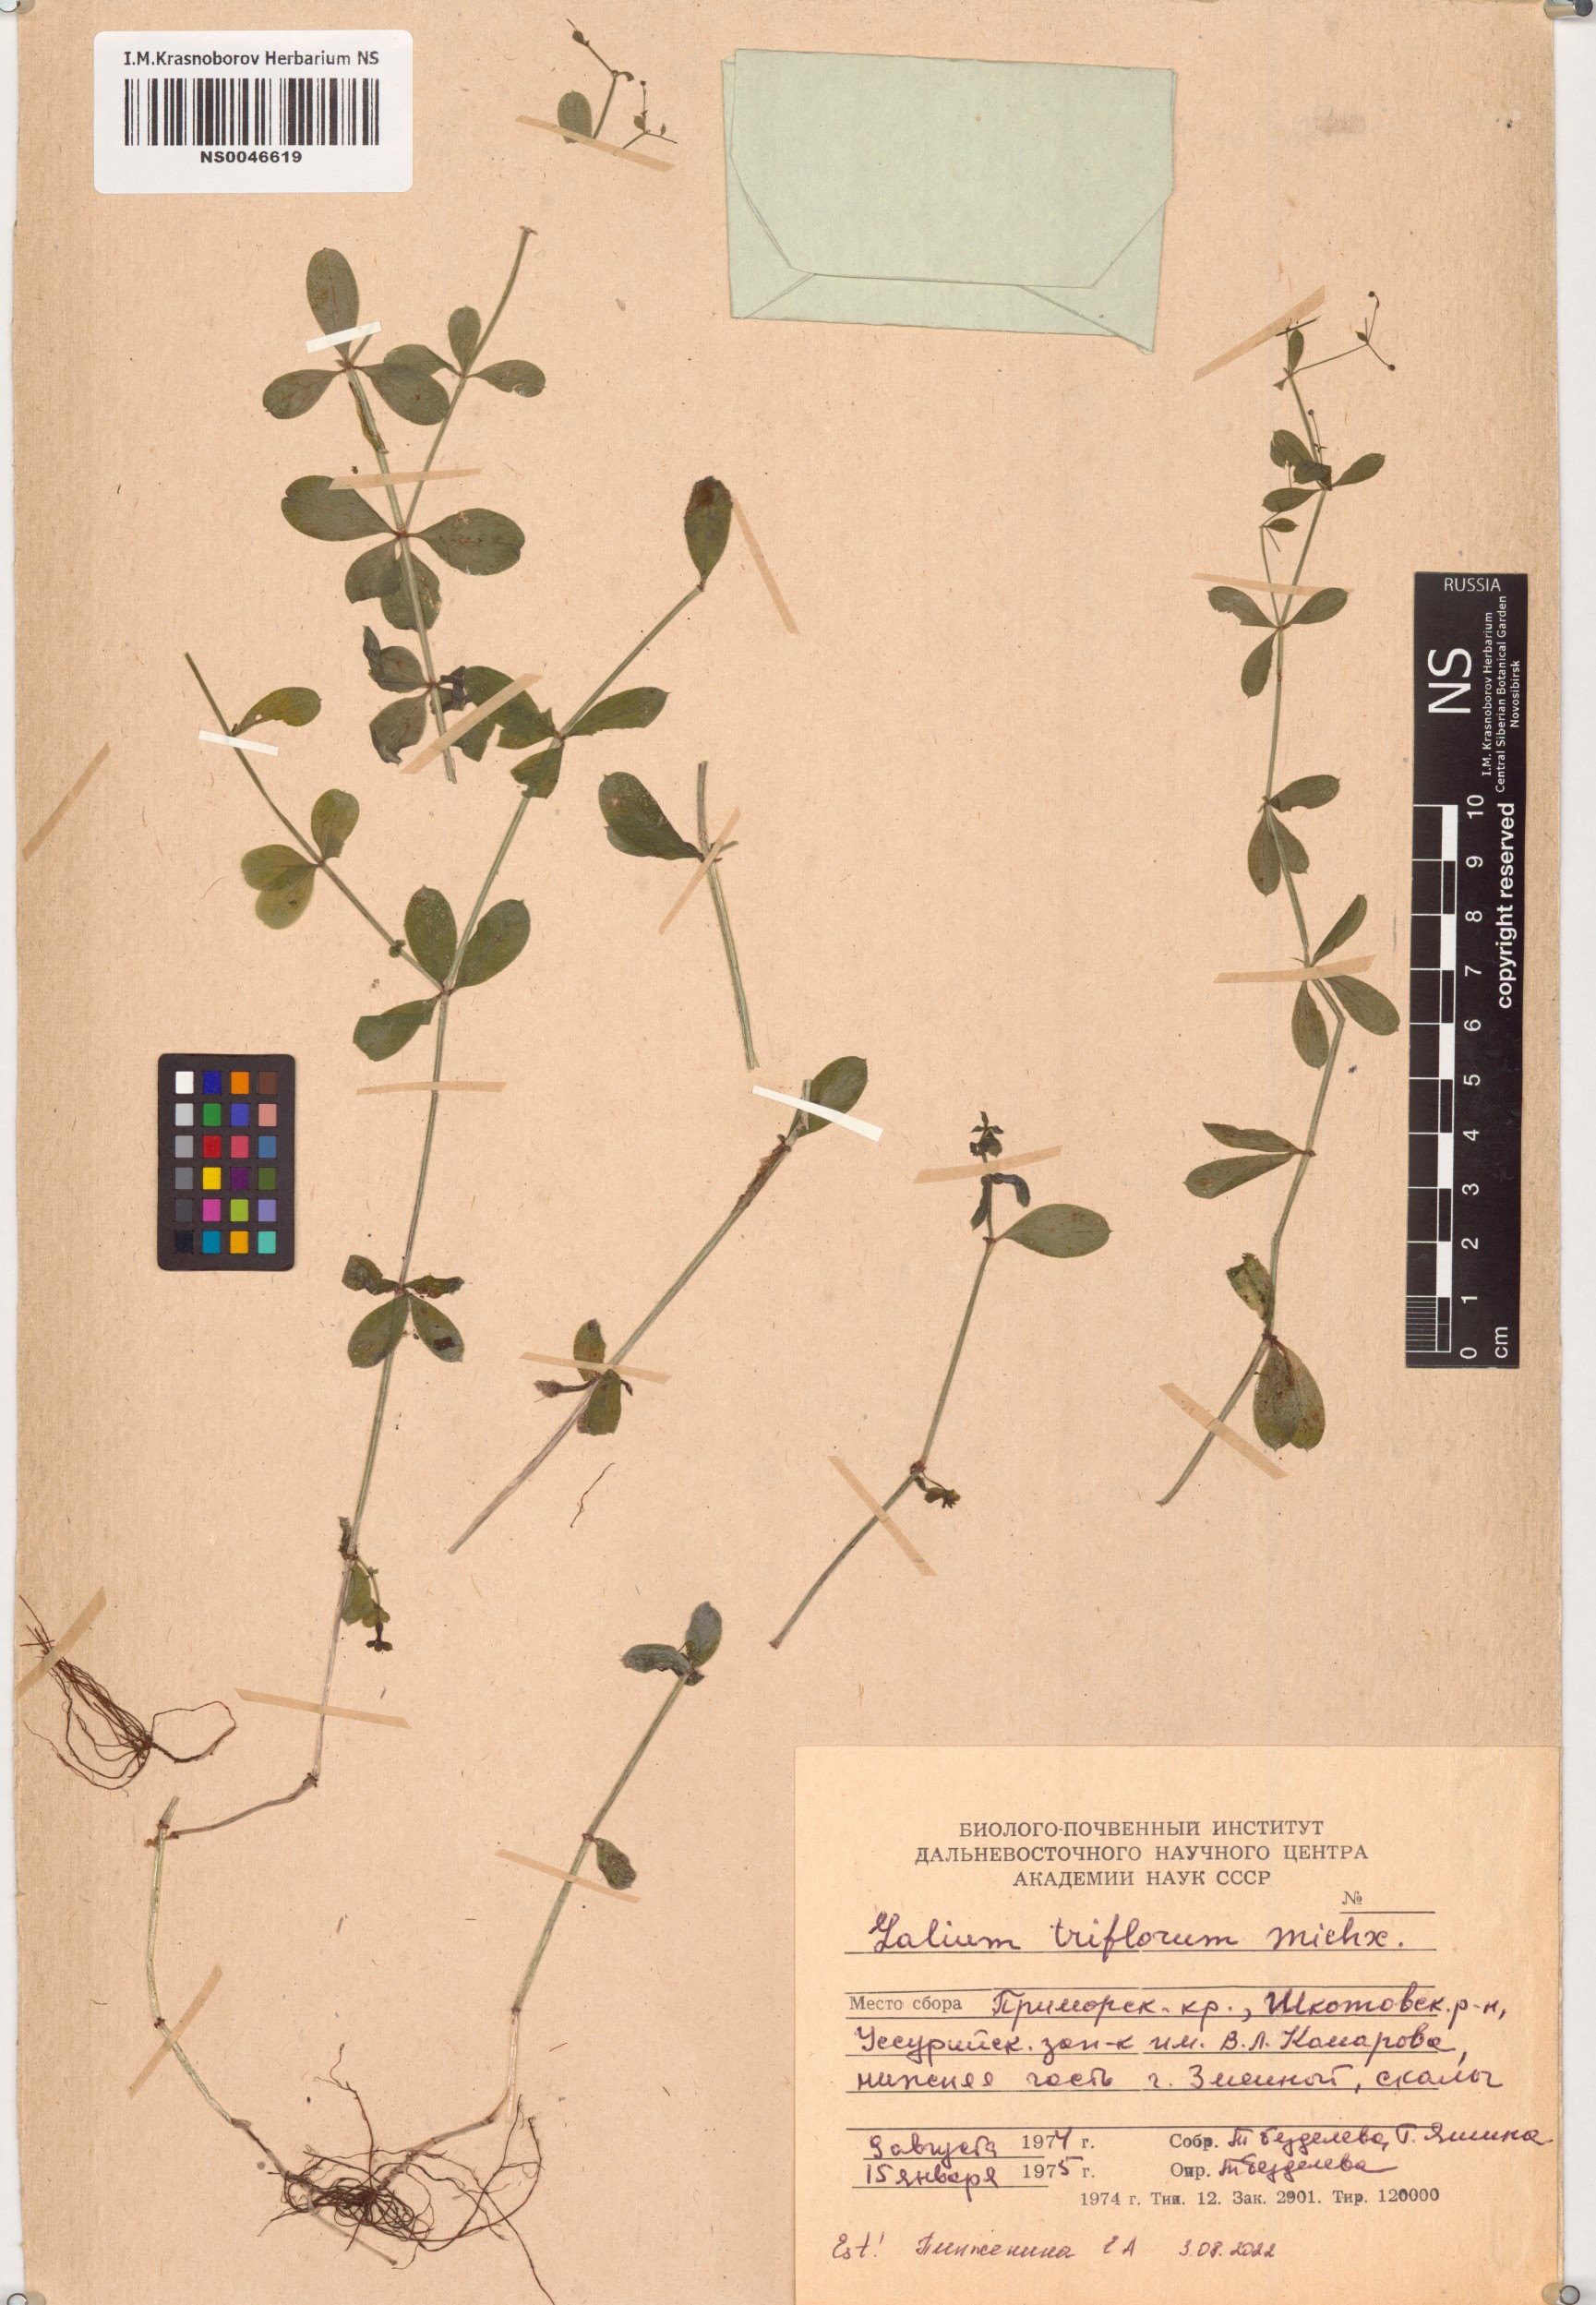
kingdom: Plantae
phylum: Tracheophyta
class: Magnoliopsida
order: Gentianales
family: Rubiaceae
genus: Galium
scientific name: Galium triflorum
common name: Fragrant bedstraw
